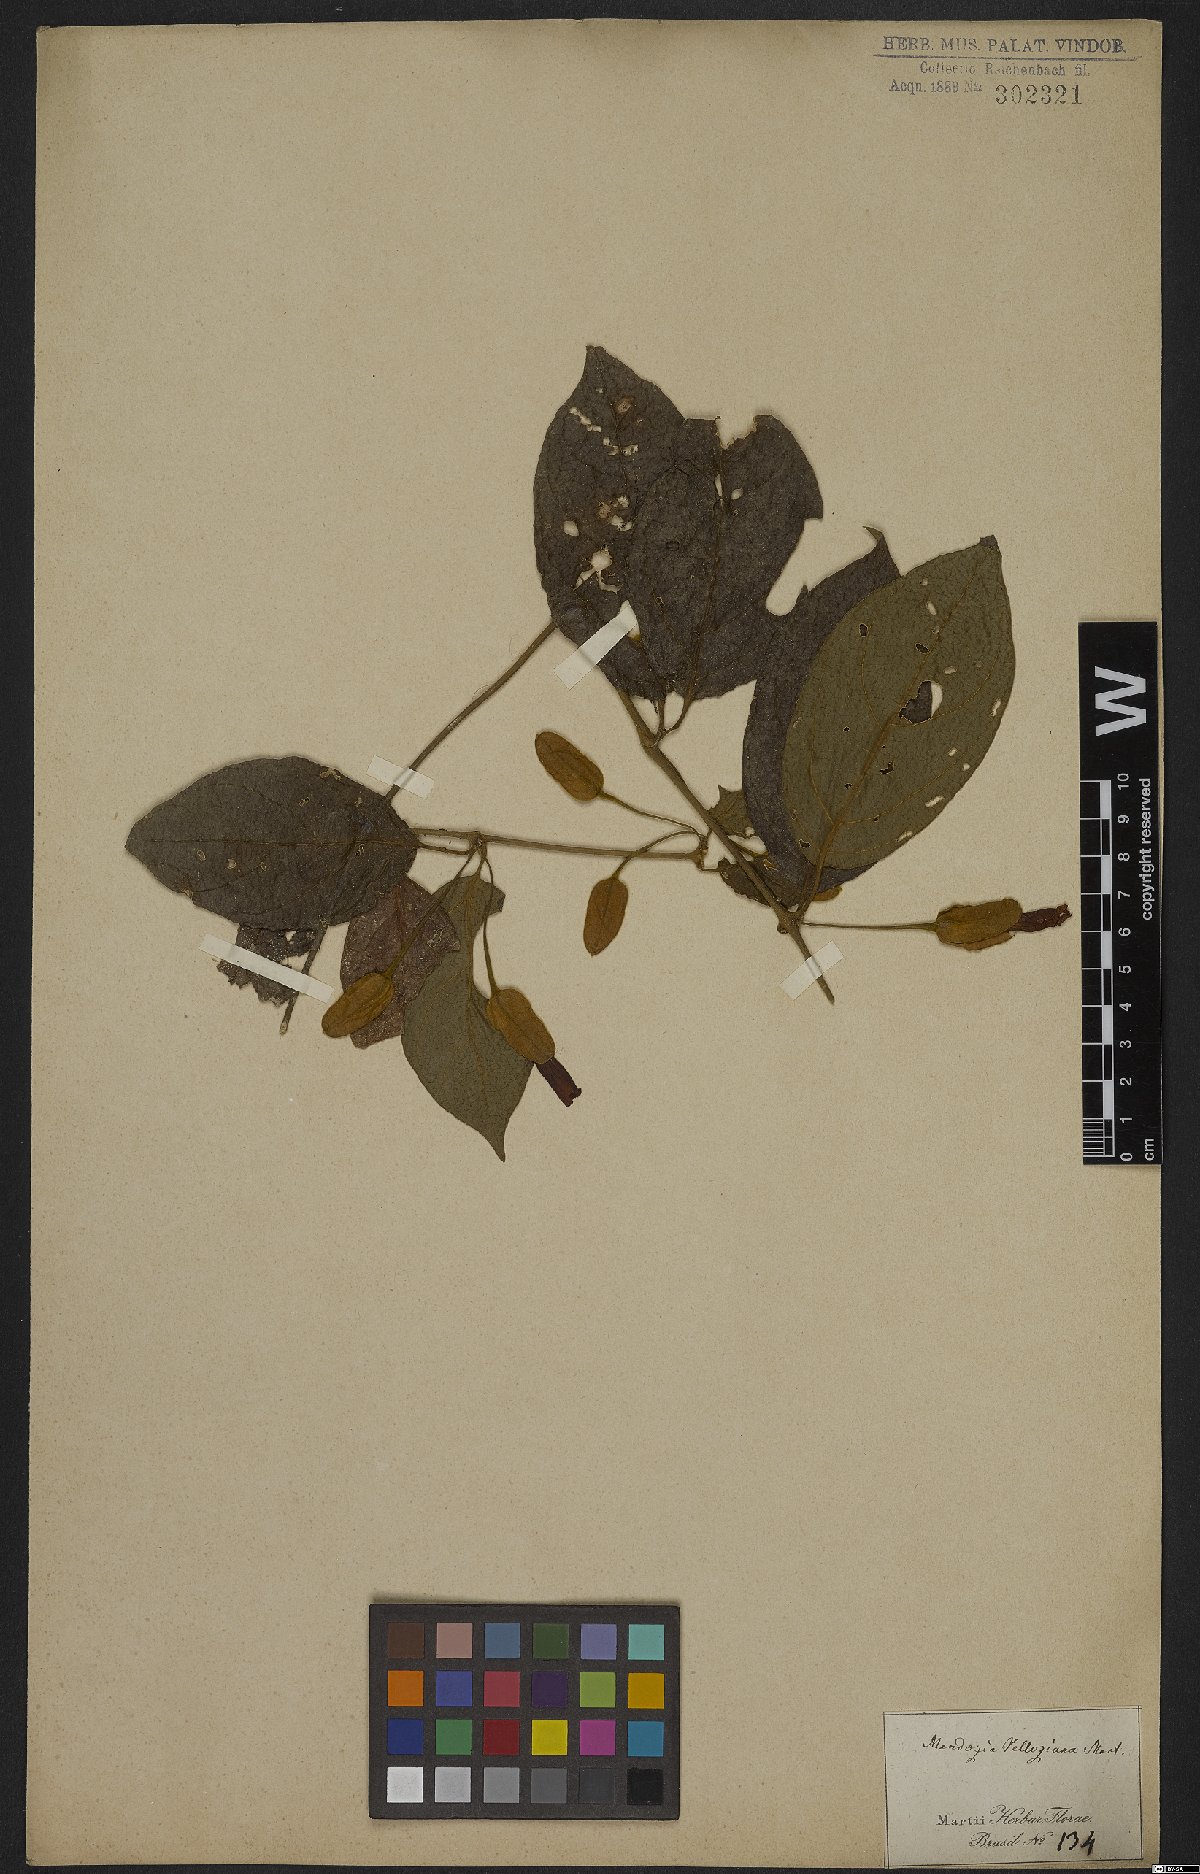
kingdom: Plantae
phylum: Tracheophyta
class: Magnoliopsida
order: Lamiales
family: Acanthaceae
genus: Mendoncia
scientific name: Mendoncia velloziana
